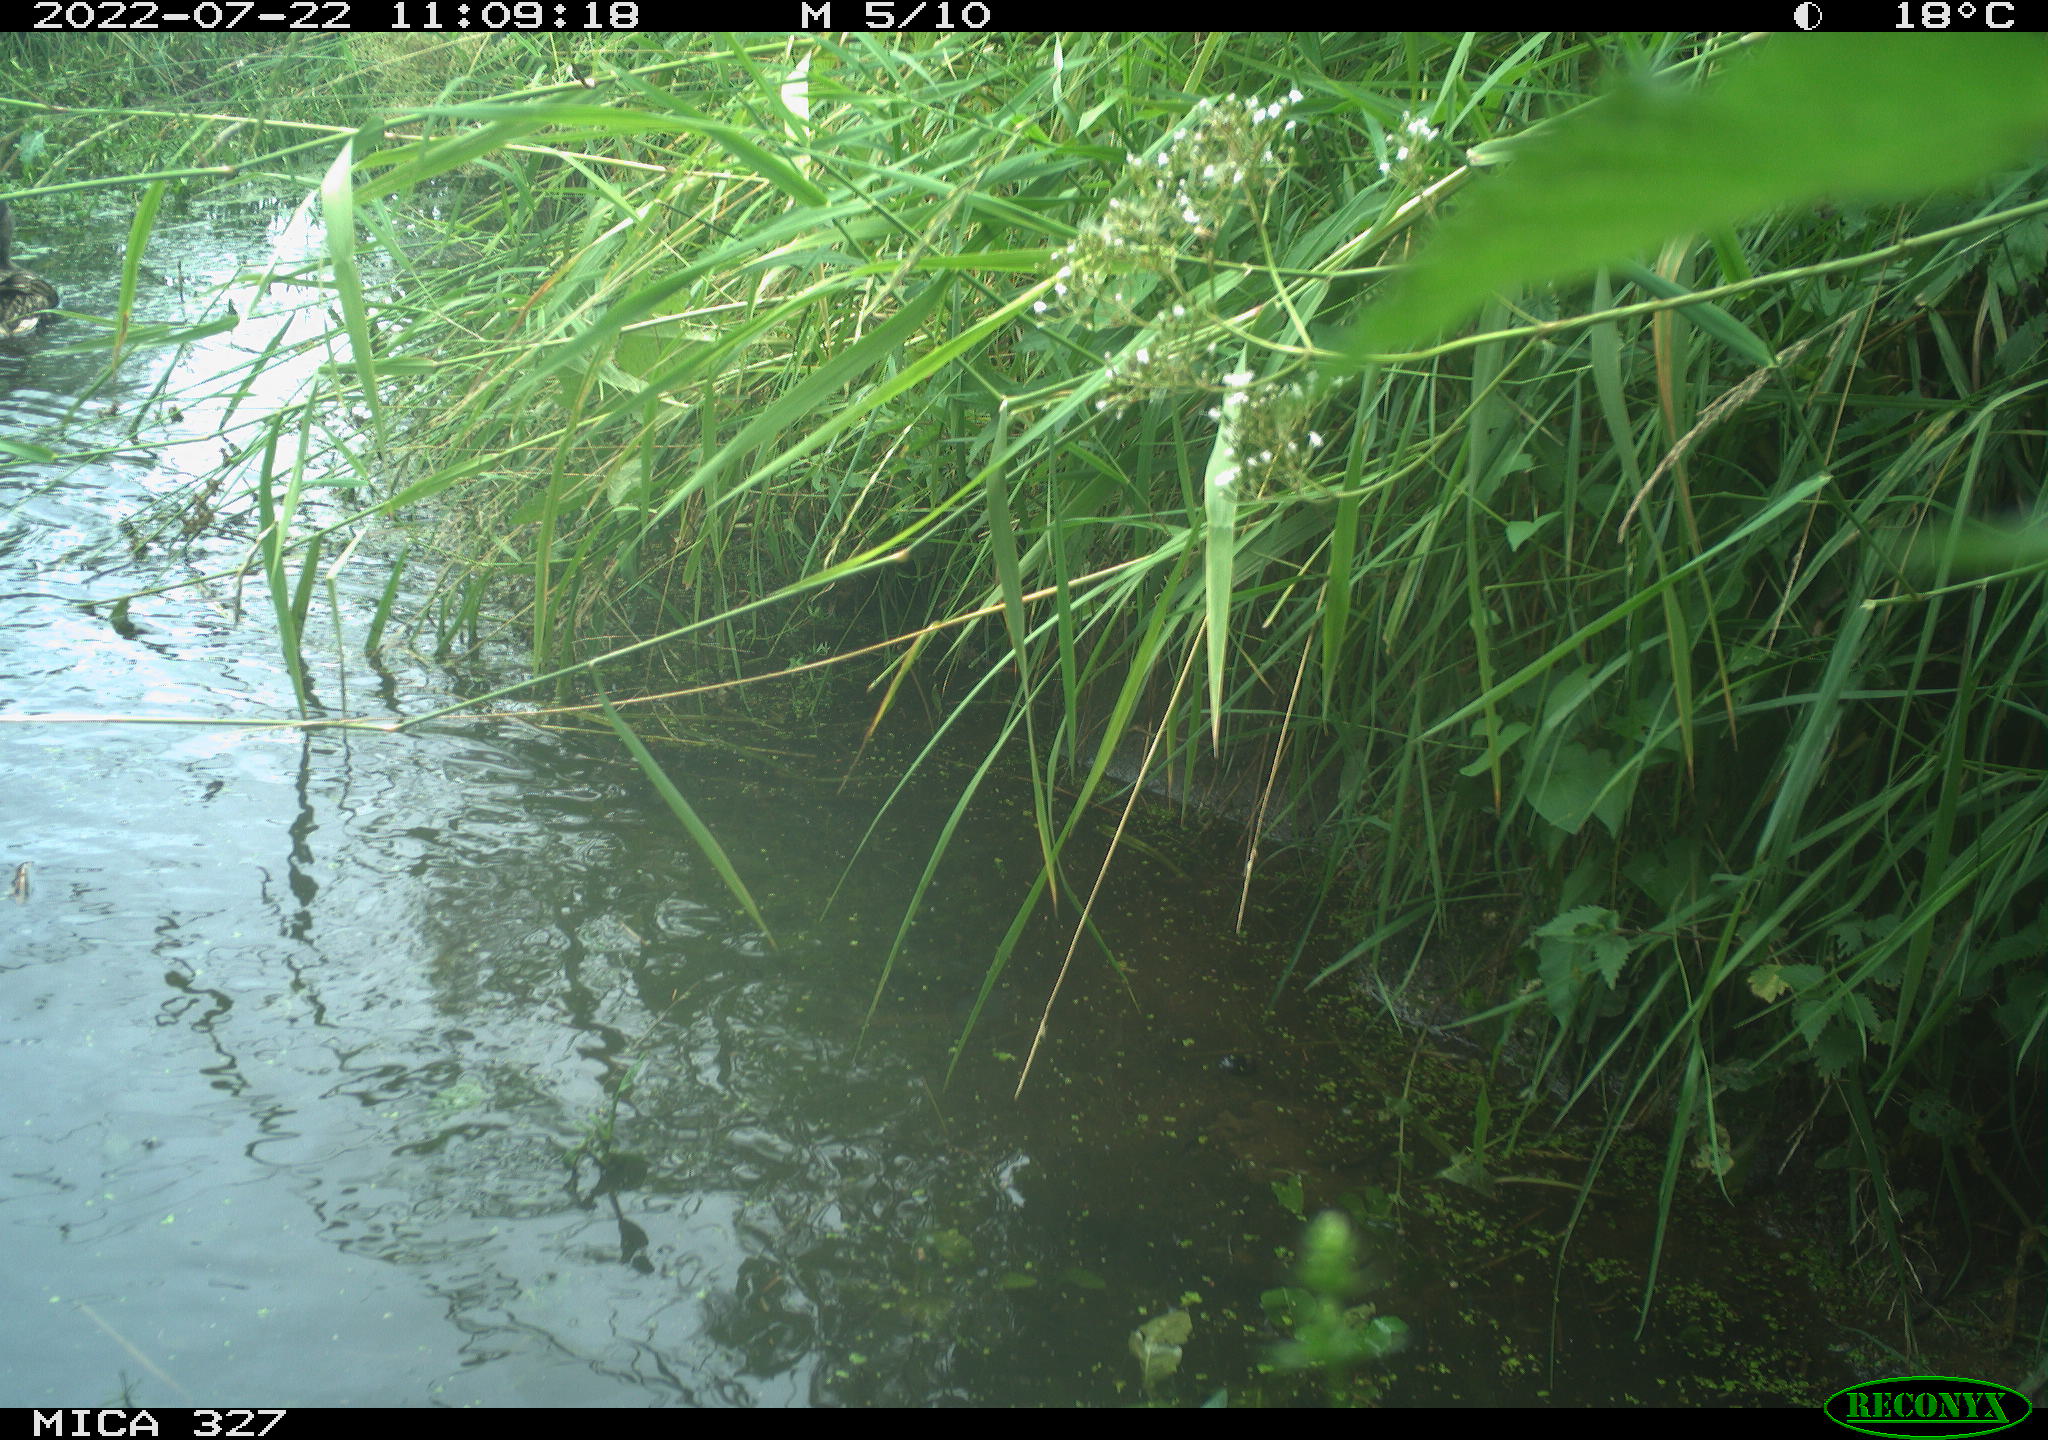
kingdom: Animalia
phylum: Chordata
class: Aves
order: Anseriformes
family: Anatidae
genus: Anas
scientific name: Anas
